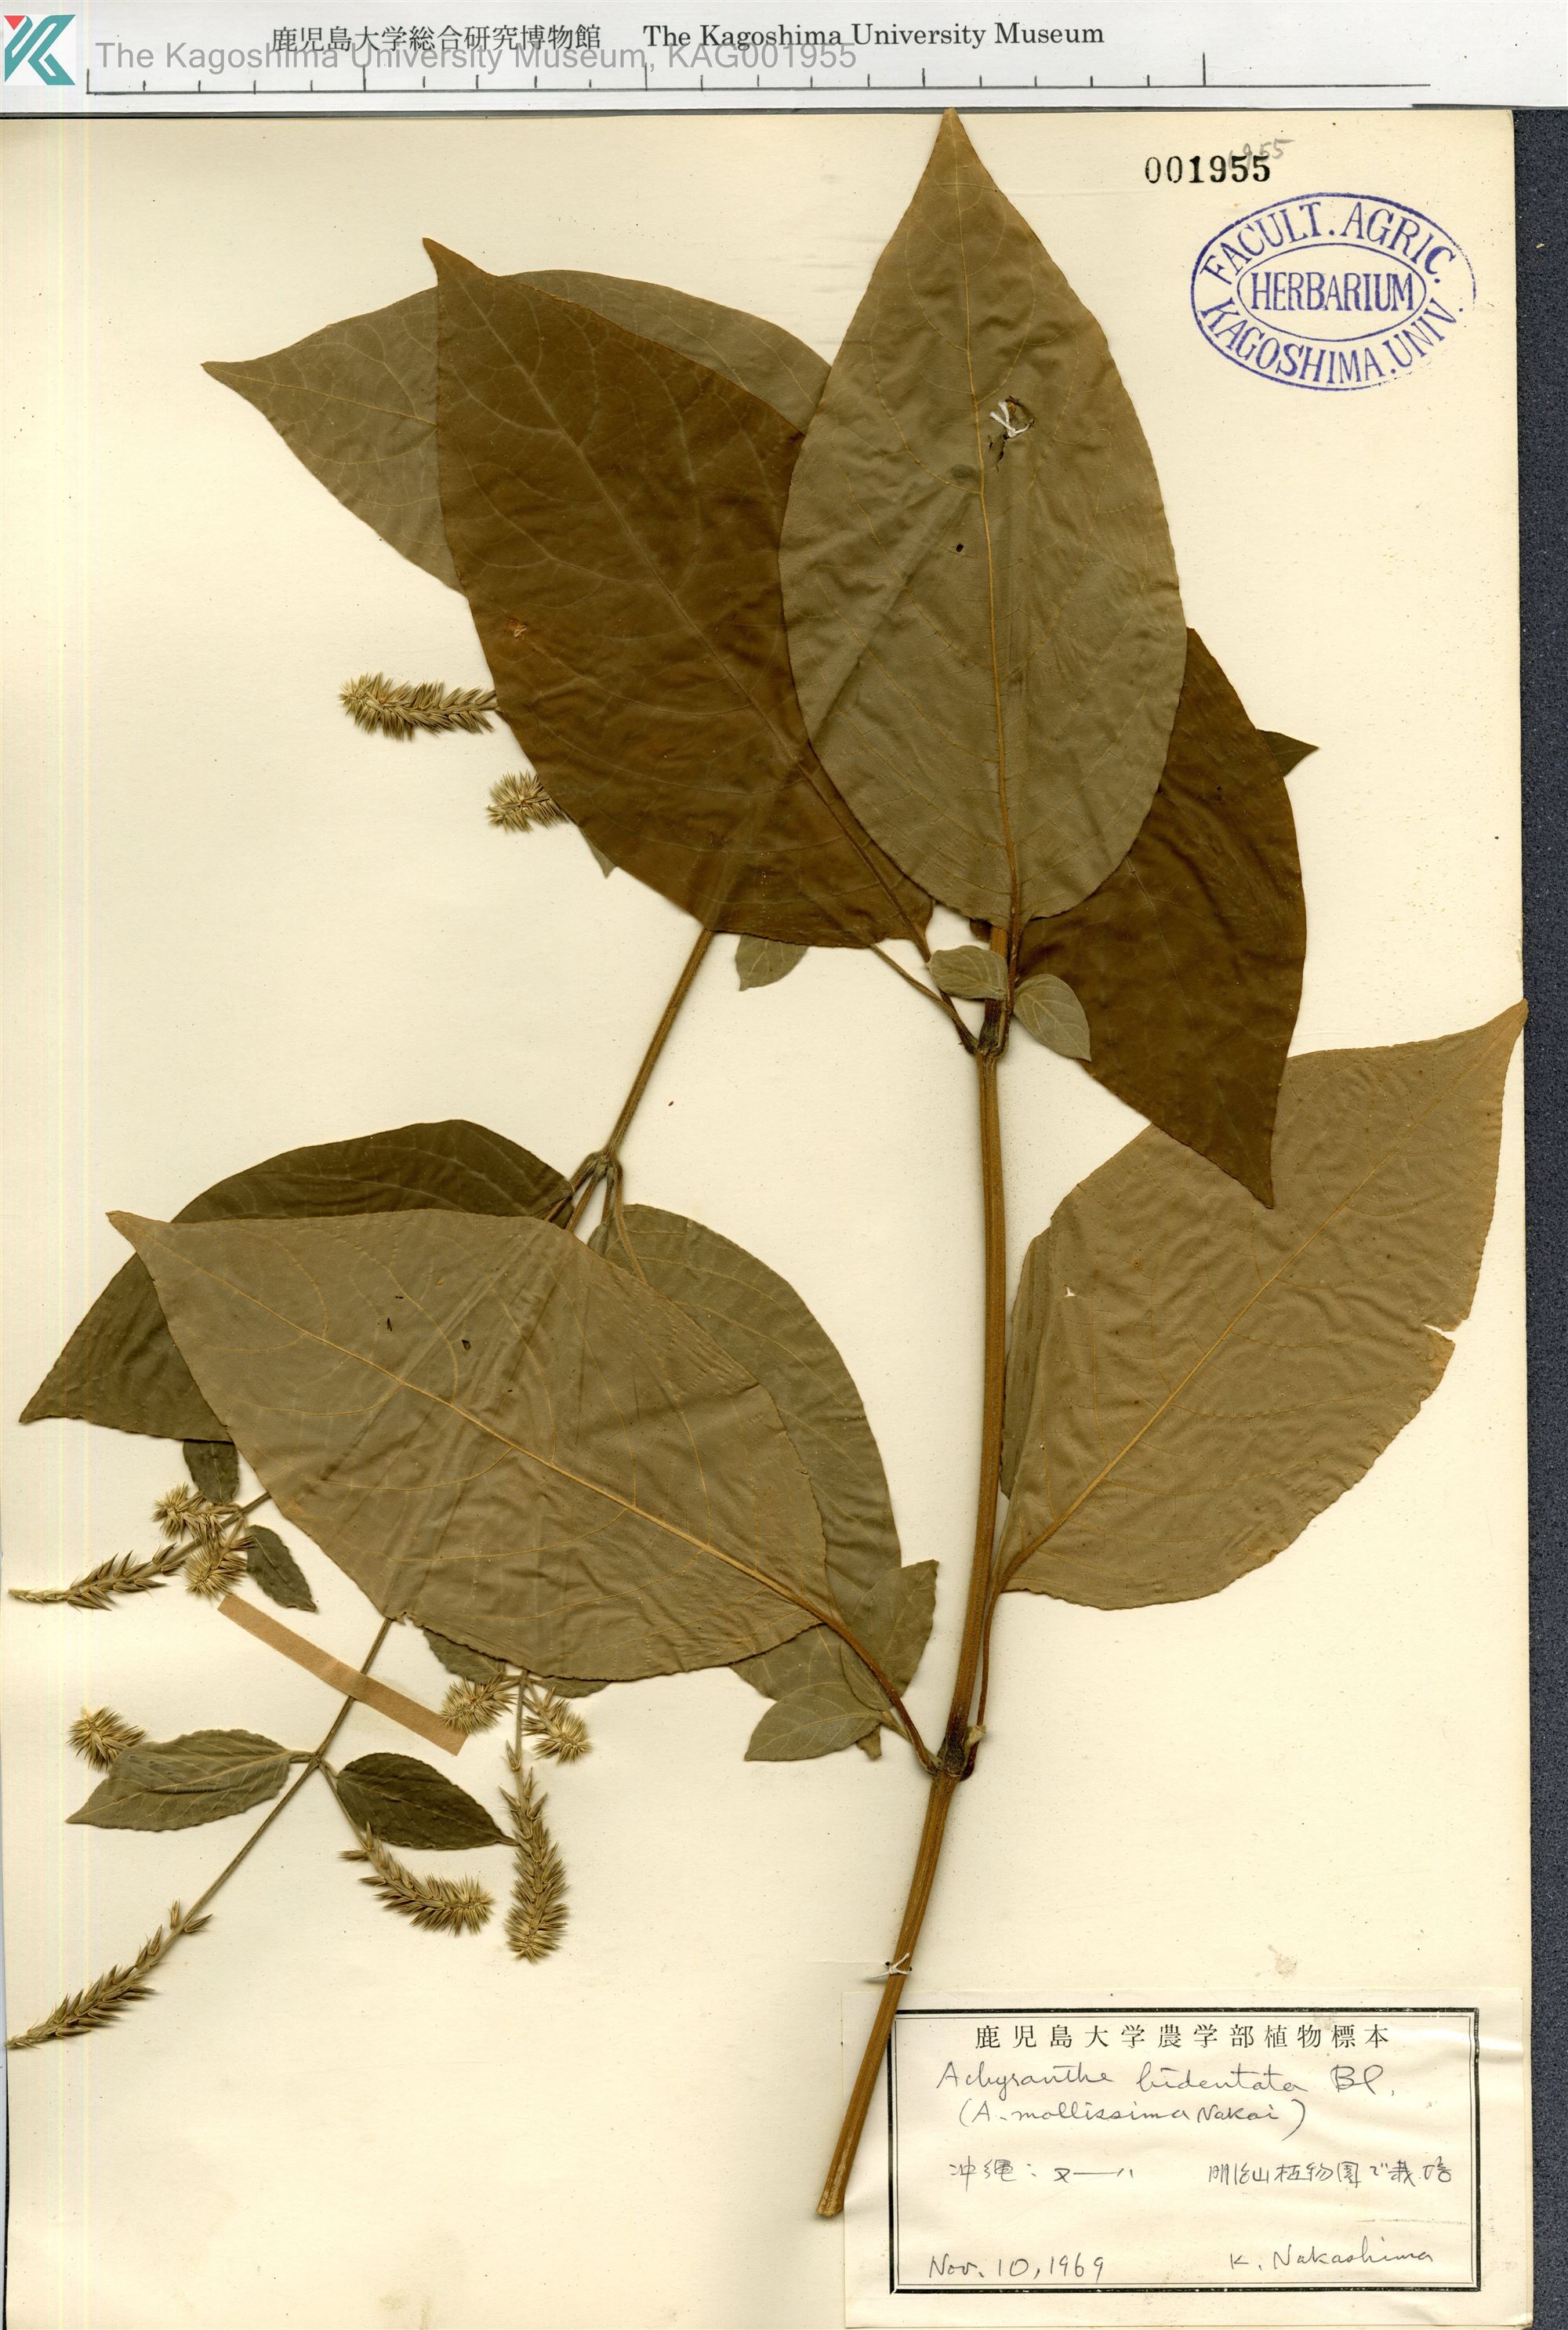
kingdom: Plantae
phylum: Tracheophyta
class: Magnoliopsida
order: Caryophyllales
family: Amaranthaceae
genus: Achyranthes
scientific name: Achyranthes bidentata
